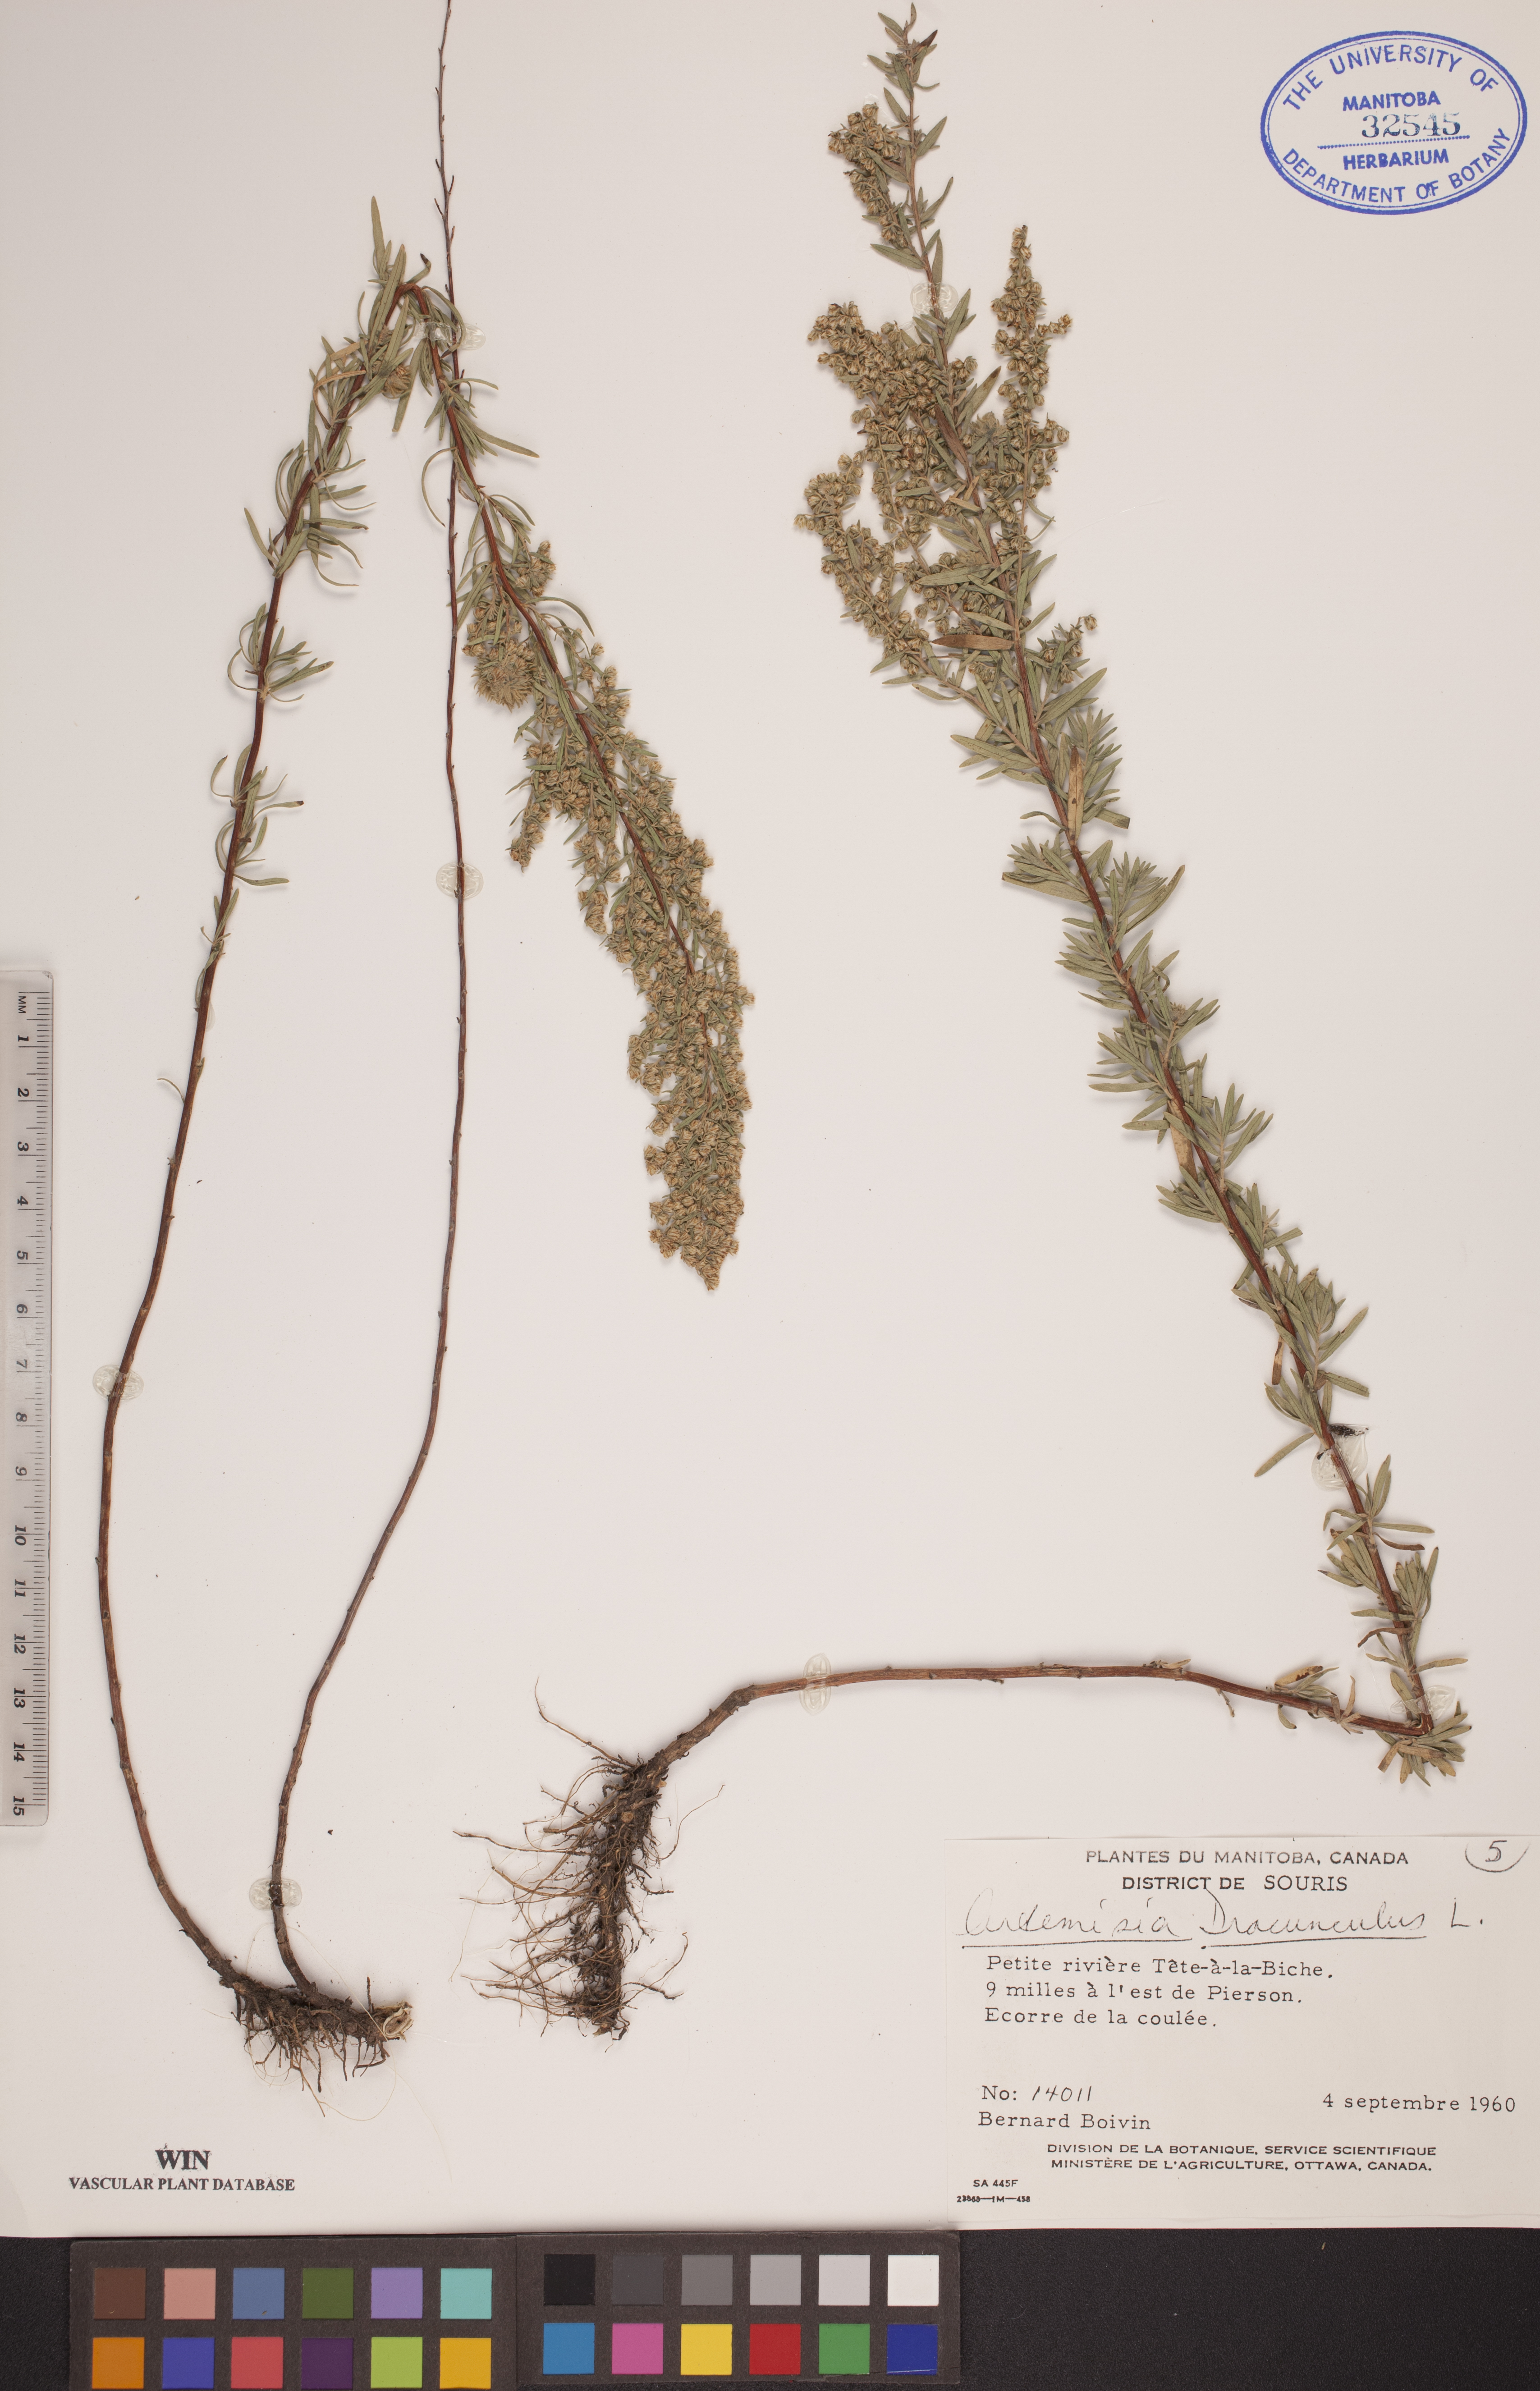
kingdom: Plantae
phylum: Tracheophyta
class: Magnoliopsida
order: Asterales
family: Asteraceae
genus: Artemisia
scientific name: Artemisia dracunculus
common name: Tarragon
